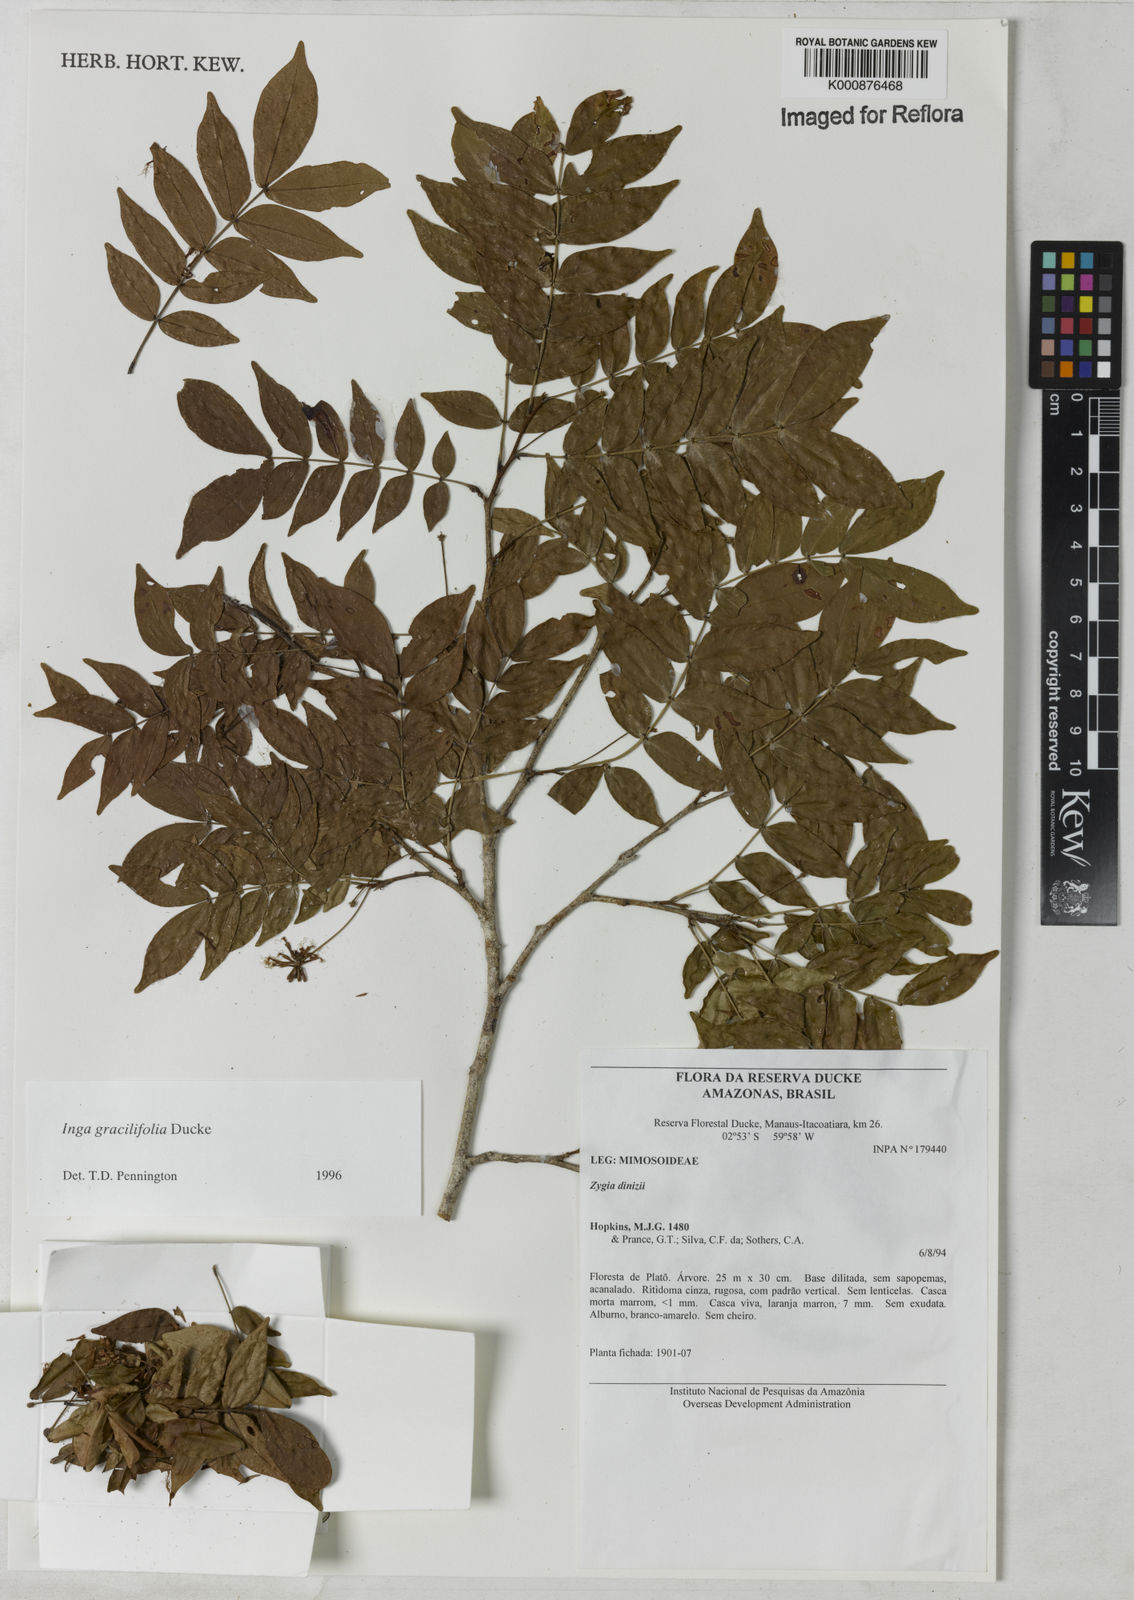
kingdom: Plantae
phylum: Tracheophyta
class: Magnoliopsida
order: Fabales
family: Fabaceae
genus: Inga
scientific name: Inga gracilifolia
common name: Gracefulleaf inga
